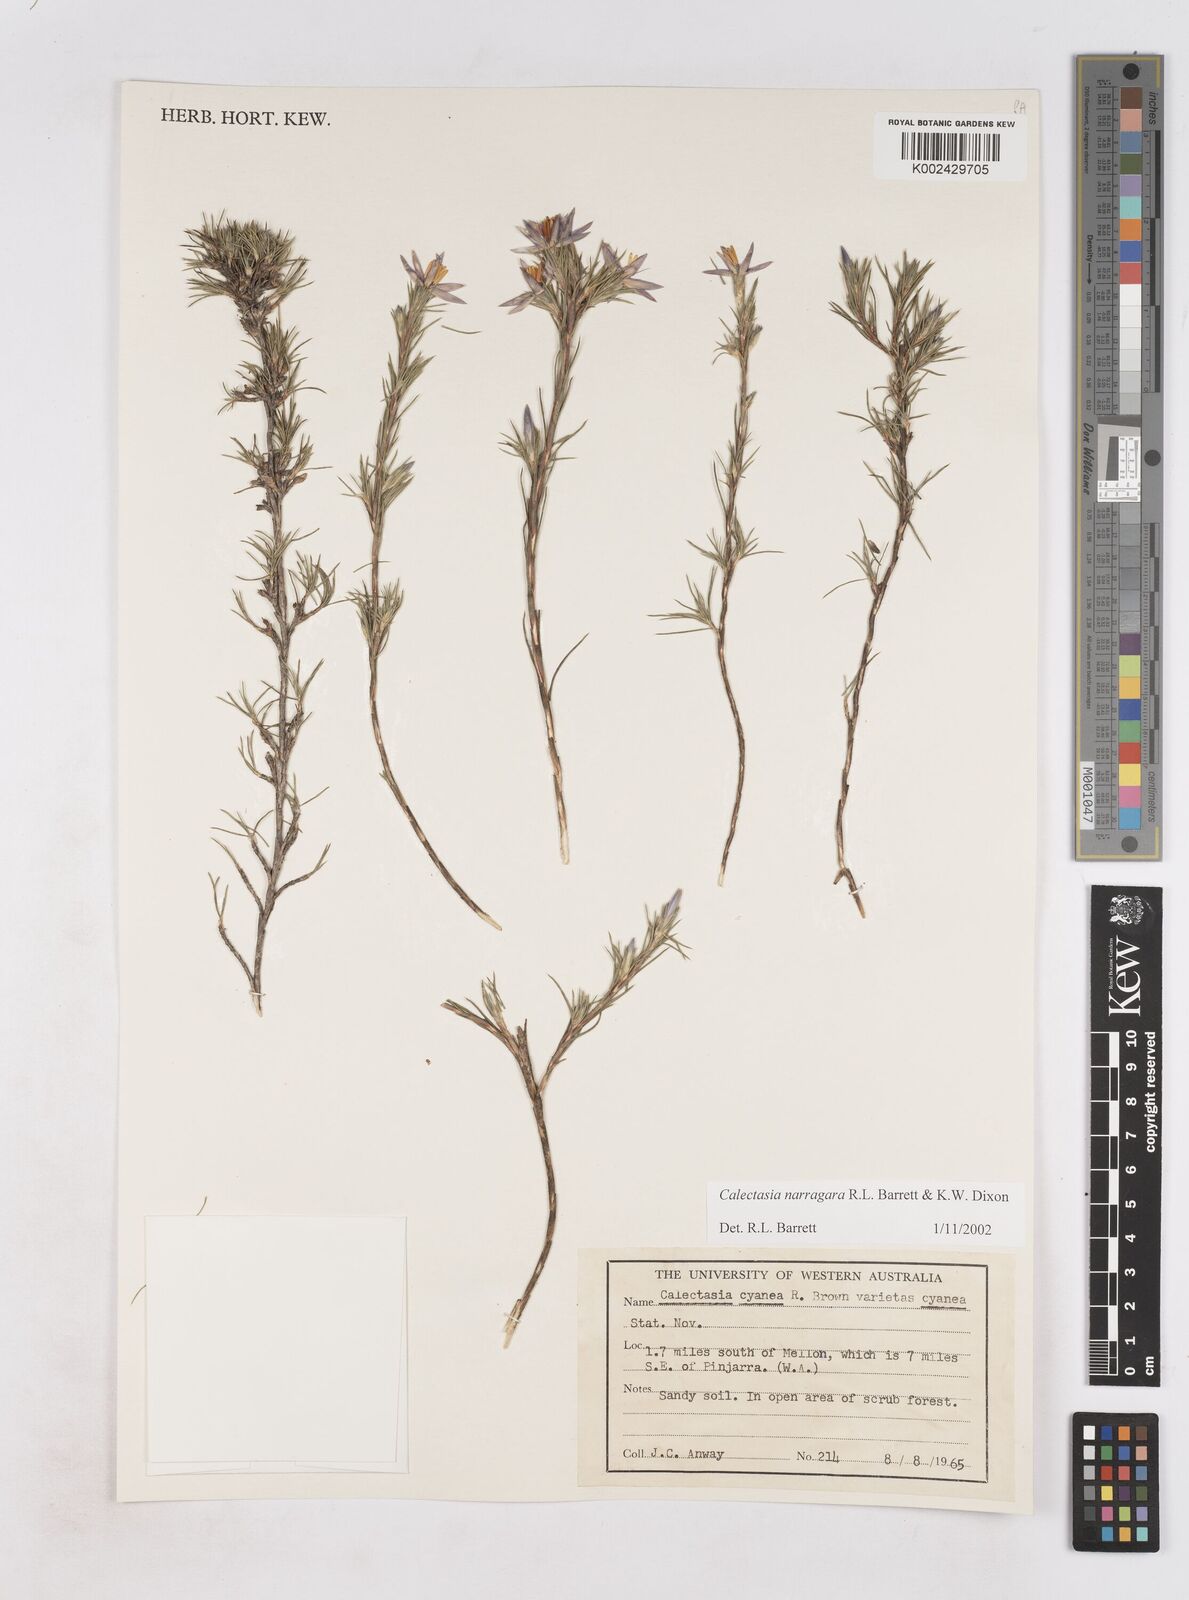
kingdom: Plantae
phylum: Tracheophyta
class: Liliopsida
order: Arecales
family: Dasypogonaceae
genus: Calectasia
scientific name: Calectasia narragara
